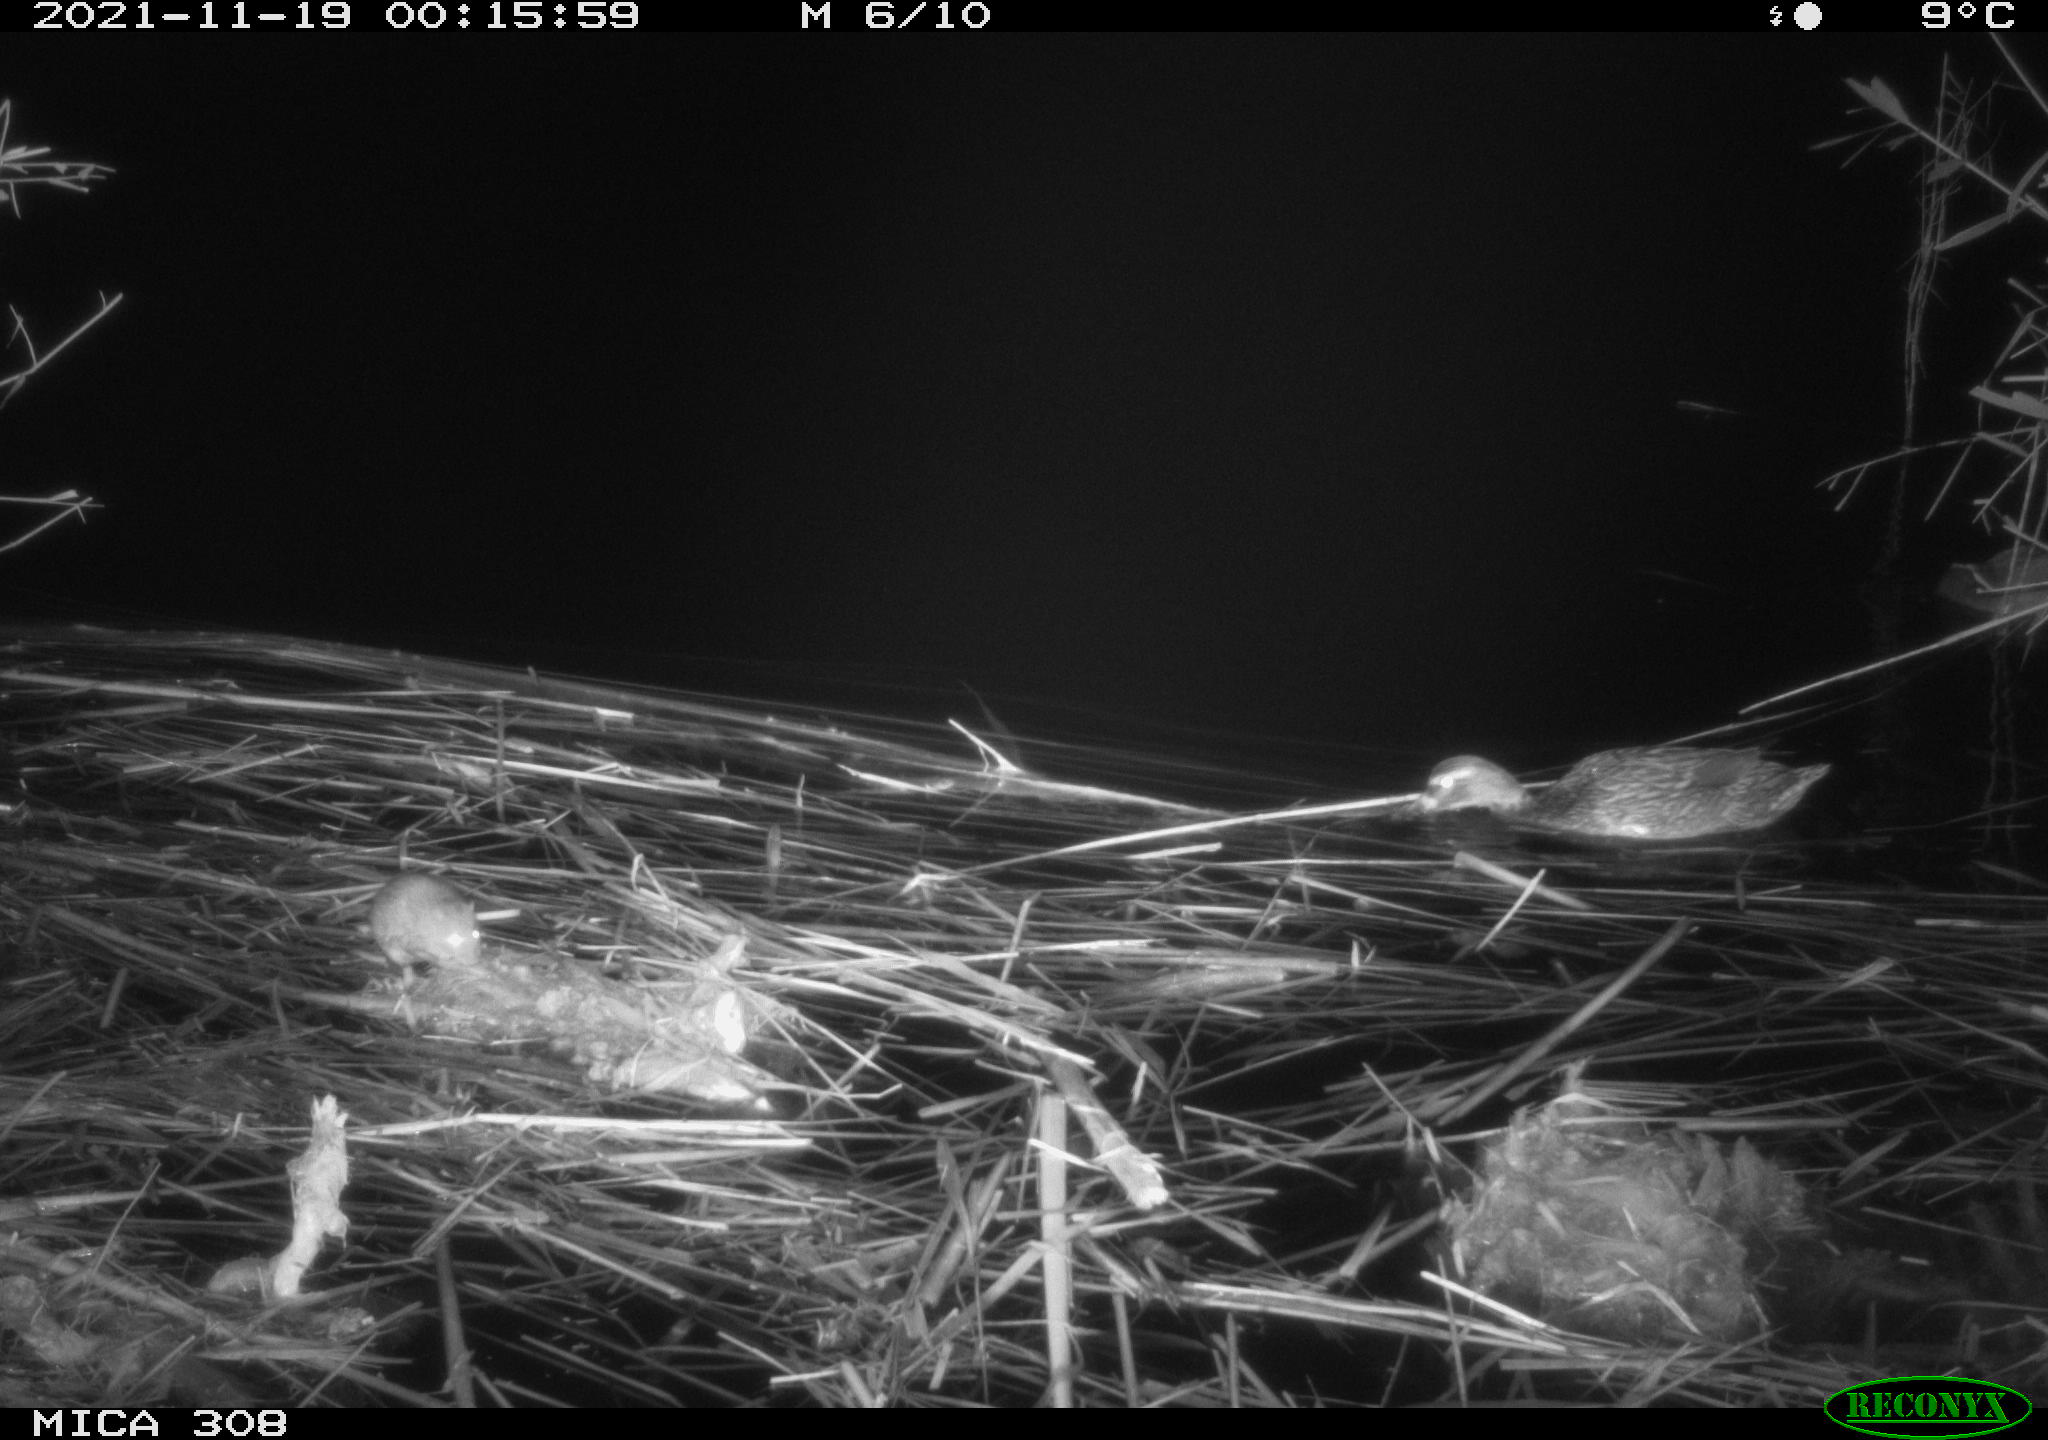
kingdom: Animalia
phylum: Chordata
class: Aves
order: Anseriformes
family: Anatidae
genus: Anas
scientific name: Anas platyrhynchos
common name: Mallard
